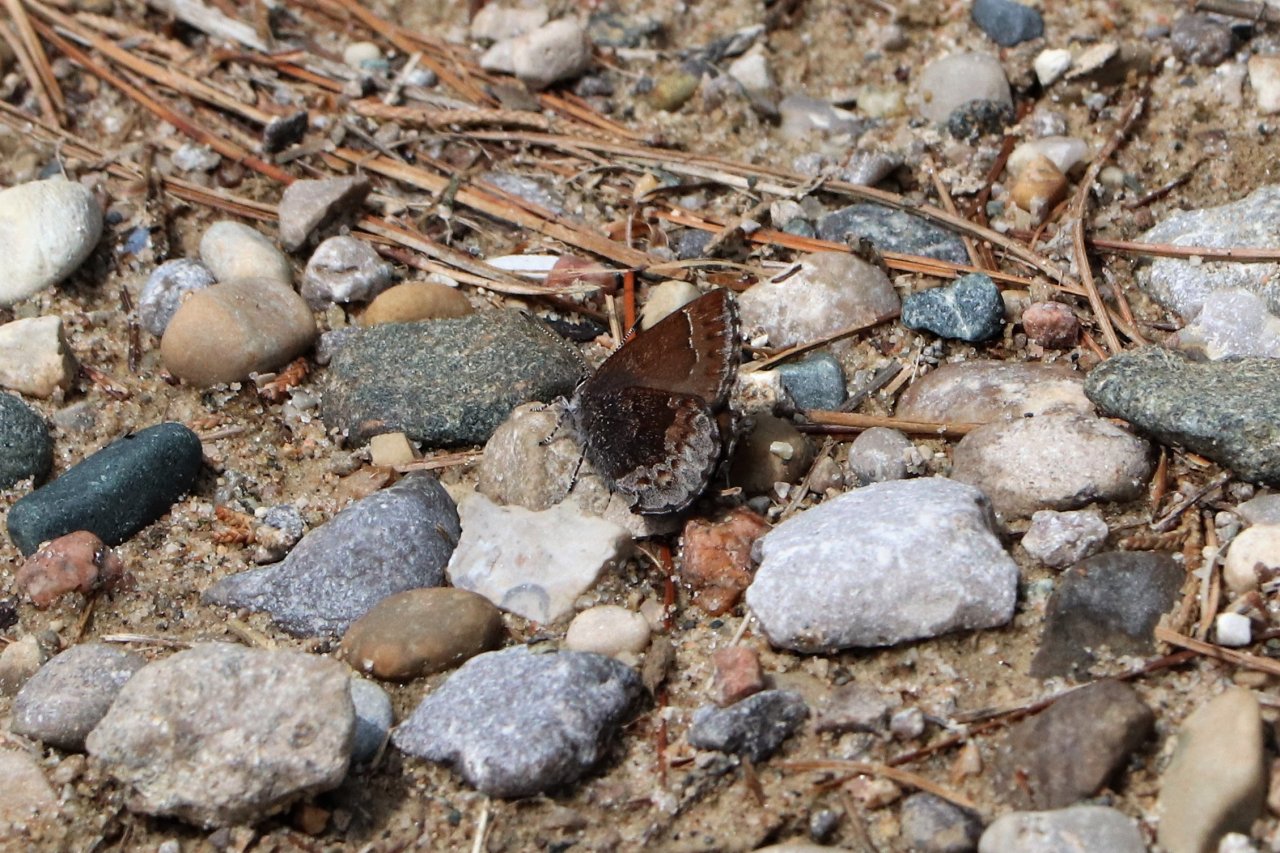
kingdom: Animalia
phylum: Arthropoda
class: Insecta
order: Lepidoptera
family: Lycaenidae
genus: Callophrys
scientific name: Callophrys polios
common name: Hoary Elfin
